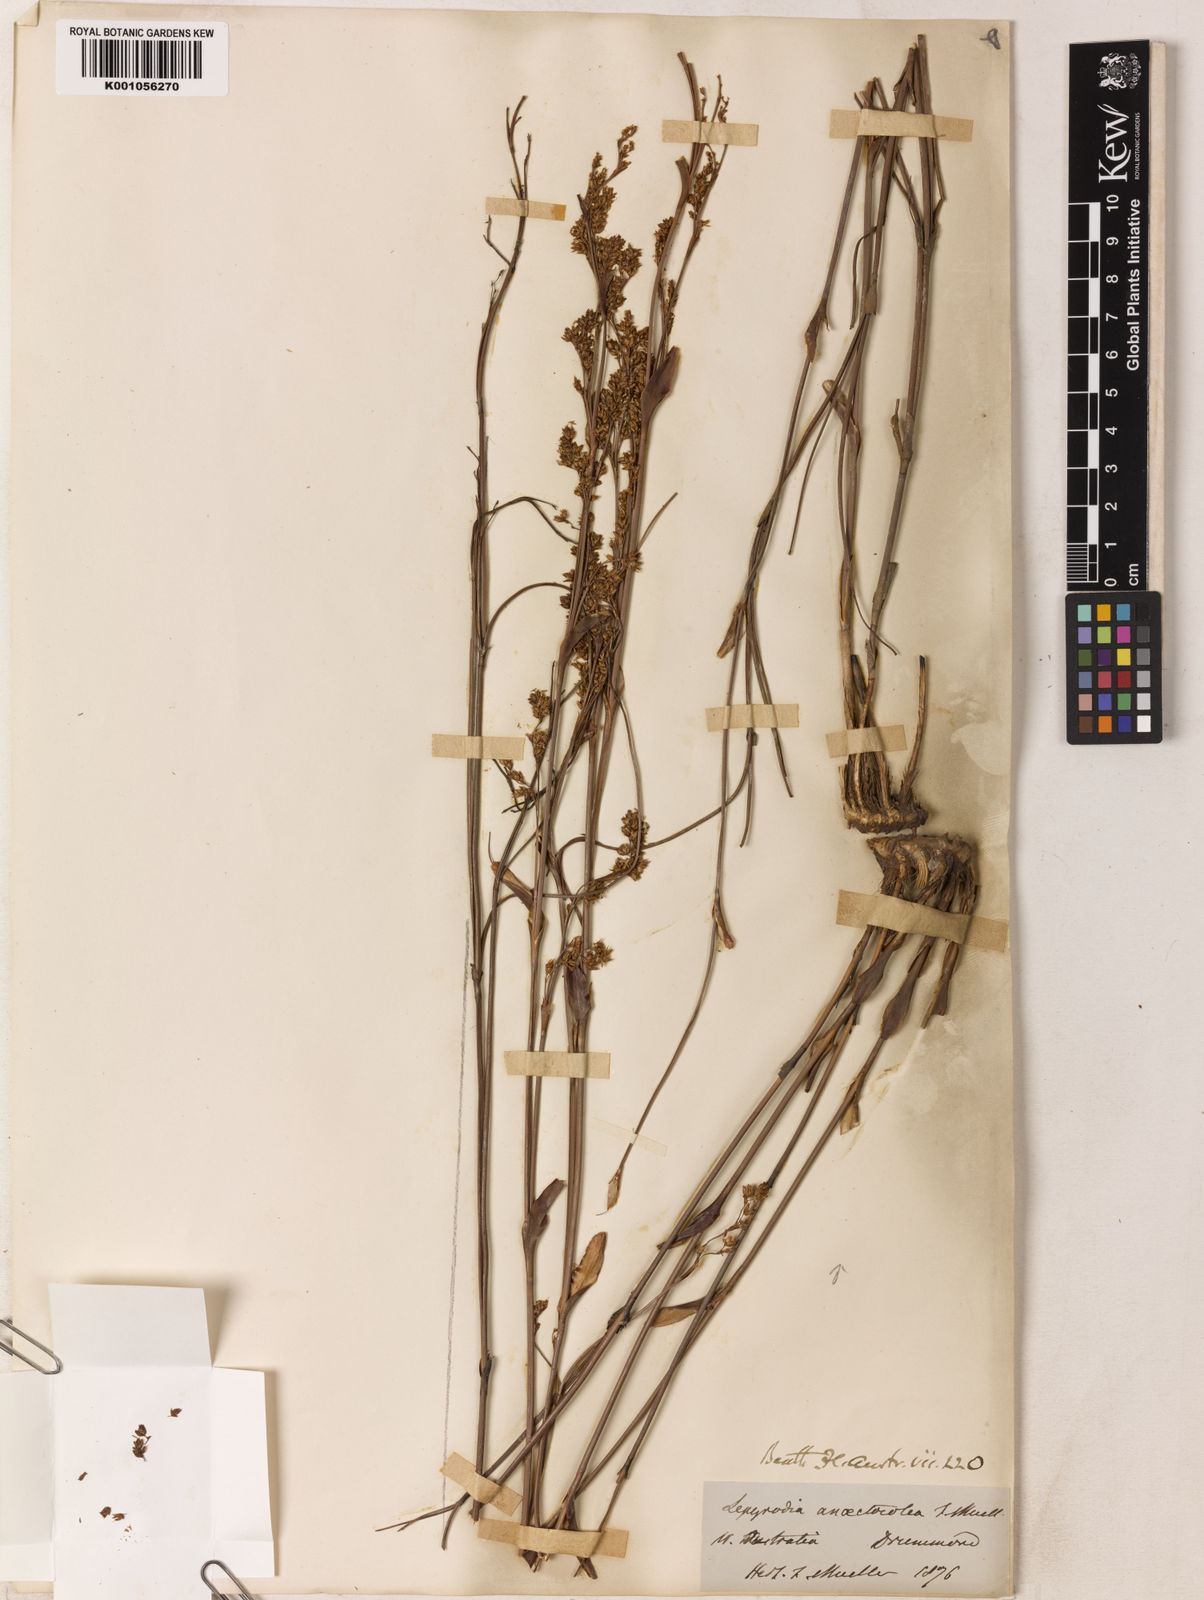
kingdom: Plantae
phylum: Tracheophyta
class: Liliopsida
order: Poales
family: Restionaceae
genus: Hopkinsia
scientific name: Hopkinsia anoectocolea
